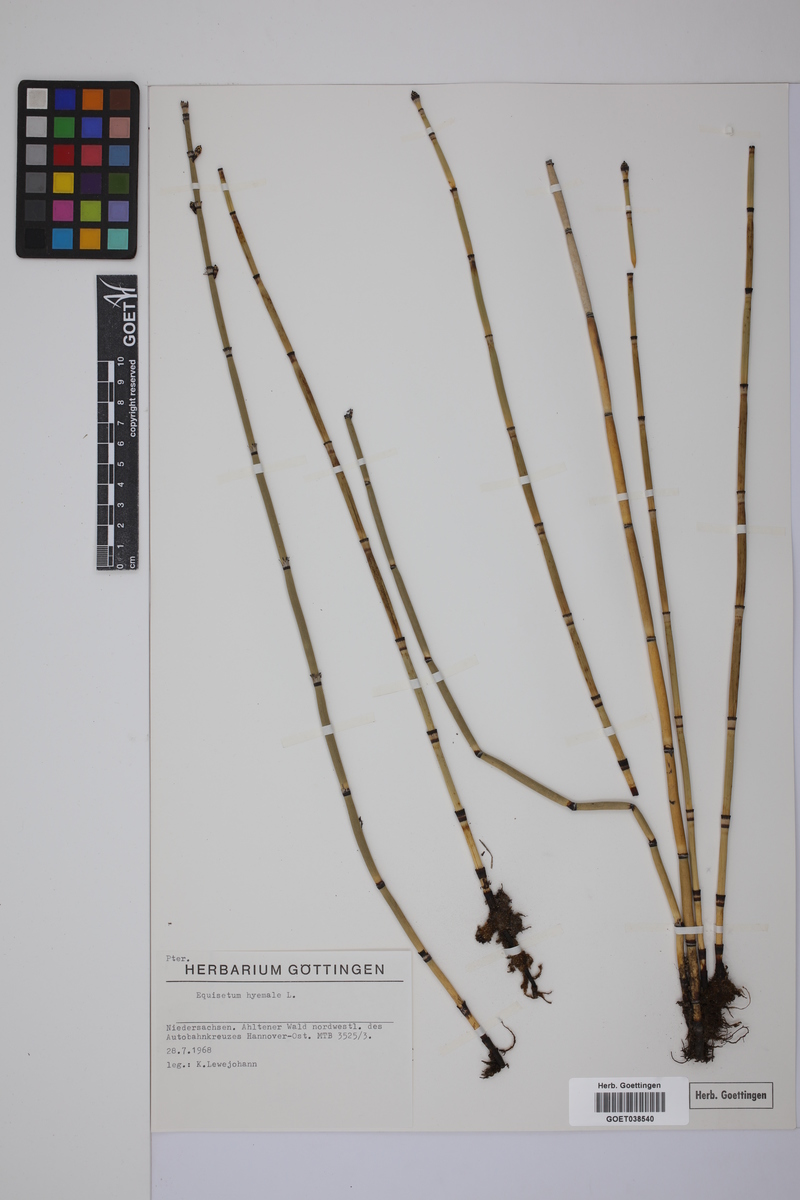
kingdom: Plantae
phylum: Tracheophyta
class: Polypodiopsida
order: Equisetales
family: Equisetaceae
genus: Equisetum
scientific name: Equisetum hyemale
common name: Rough horsetail
